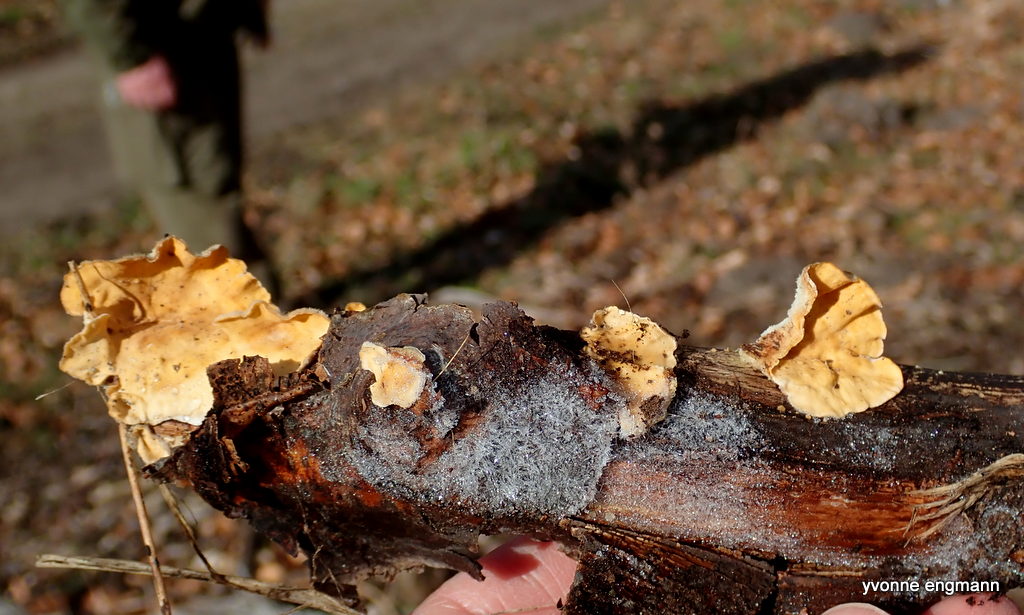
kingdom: Fungi
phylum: Basidiomycota
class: Agaricomycetes
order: Russulales
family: Stereaceae
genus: Stereum
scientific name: Stereum hirsutum
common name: håret lædersvamp
